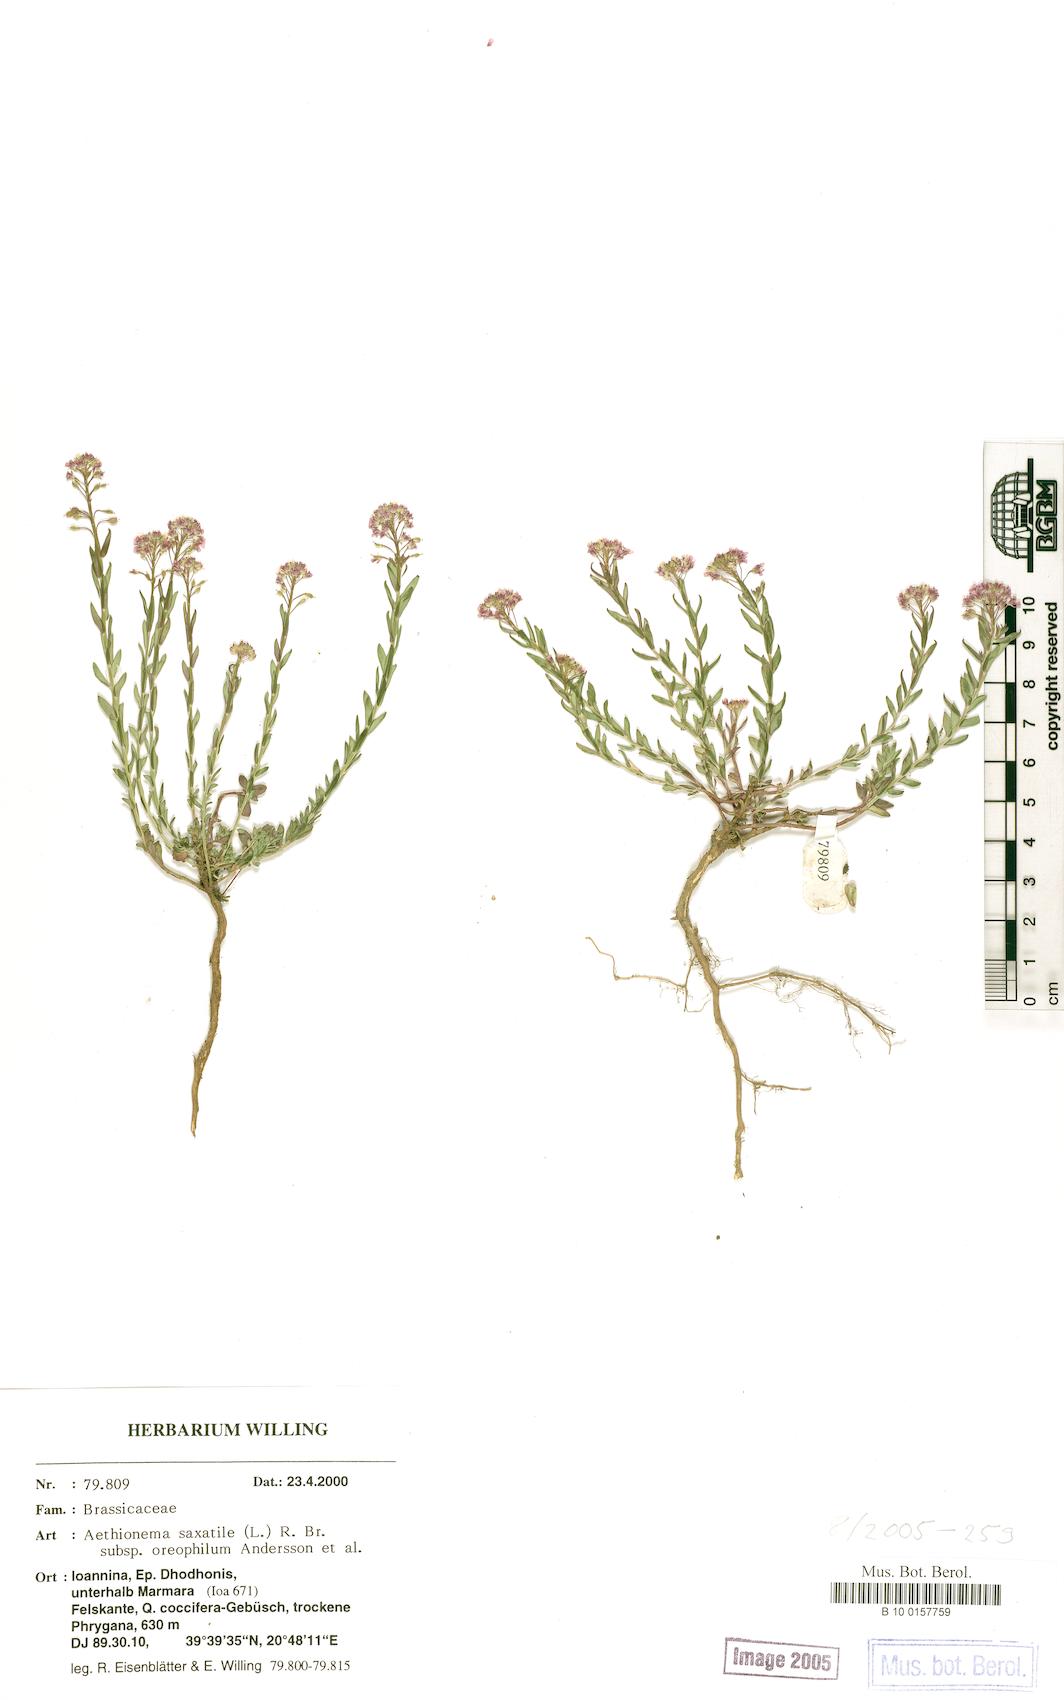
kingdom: Plantae
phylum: Tracheophyta
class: Magnoliopsida
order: Brassicales
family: Brassicaceae
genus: Aethionema
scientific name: Aethionema saxatile
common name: Burnt candytuft
